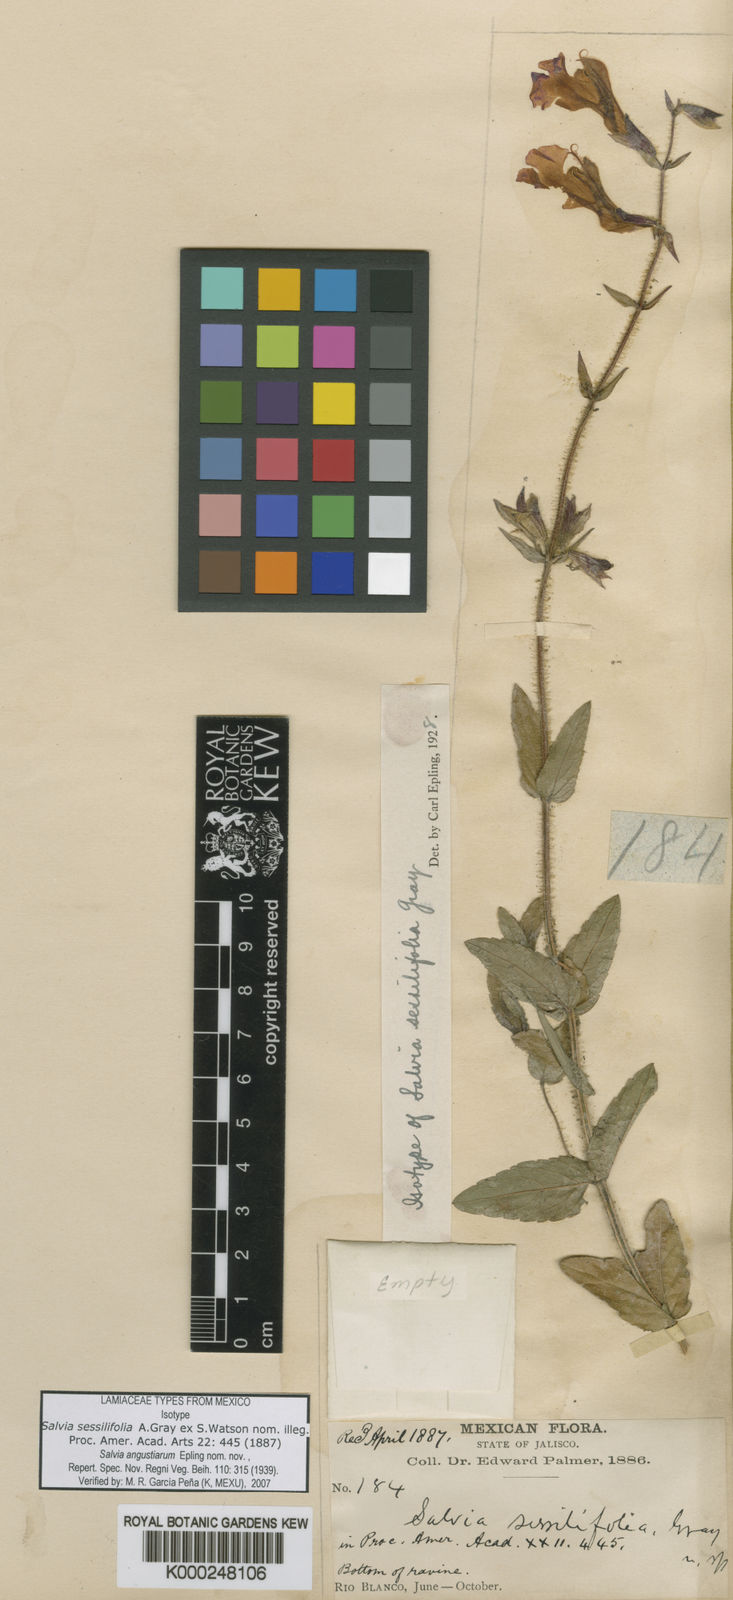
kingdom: Plantae
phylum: Tracheophyta
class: Magnoliopsida
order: Lamiales
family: Lamiaceae
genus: Salvia
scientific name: Salvia
